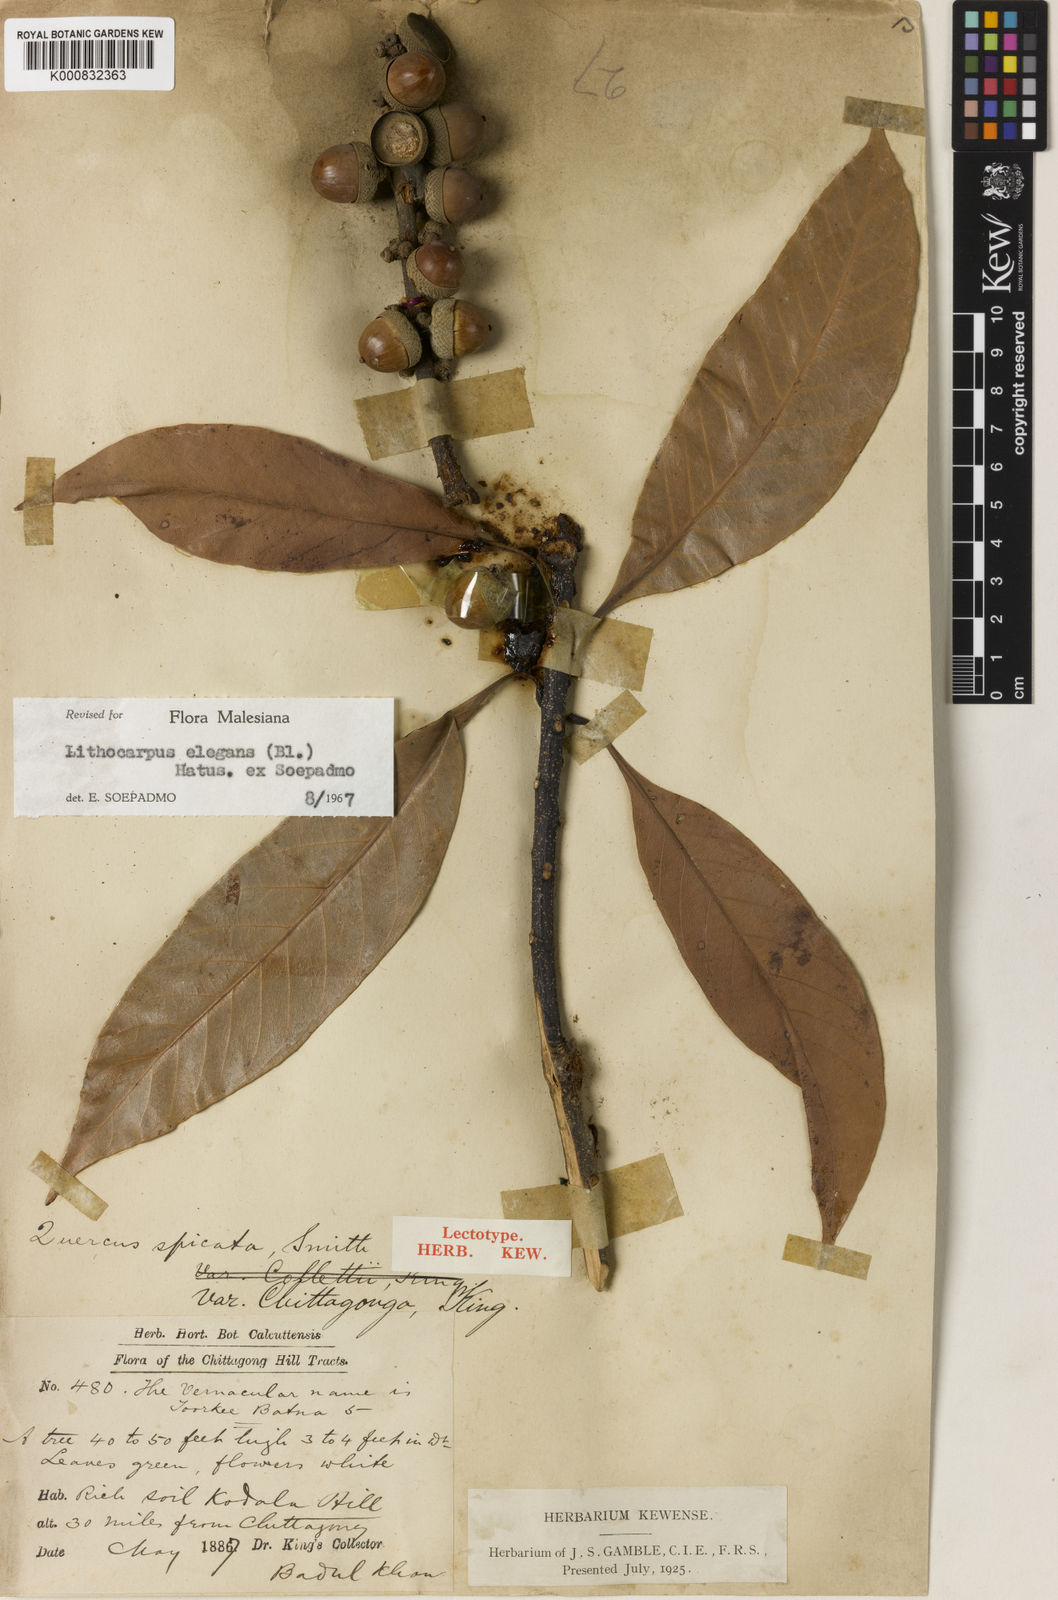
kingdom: Plantae
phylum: Tracheophyta
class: Magnoliopsida
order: Fagales
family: Fagaceae
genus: Lithocarpus
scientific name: Lithocarpus chittagongus
